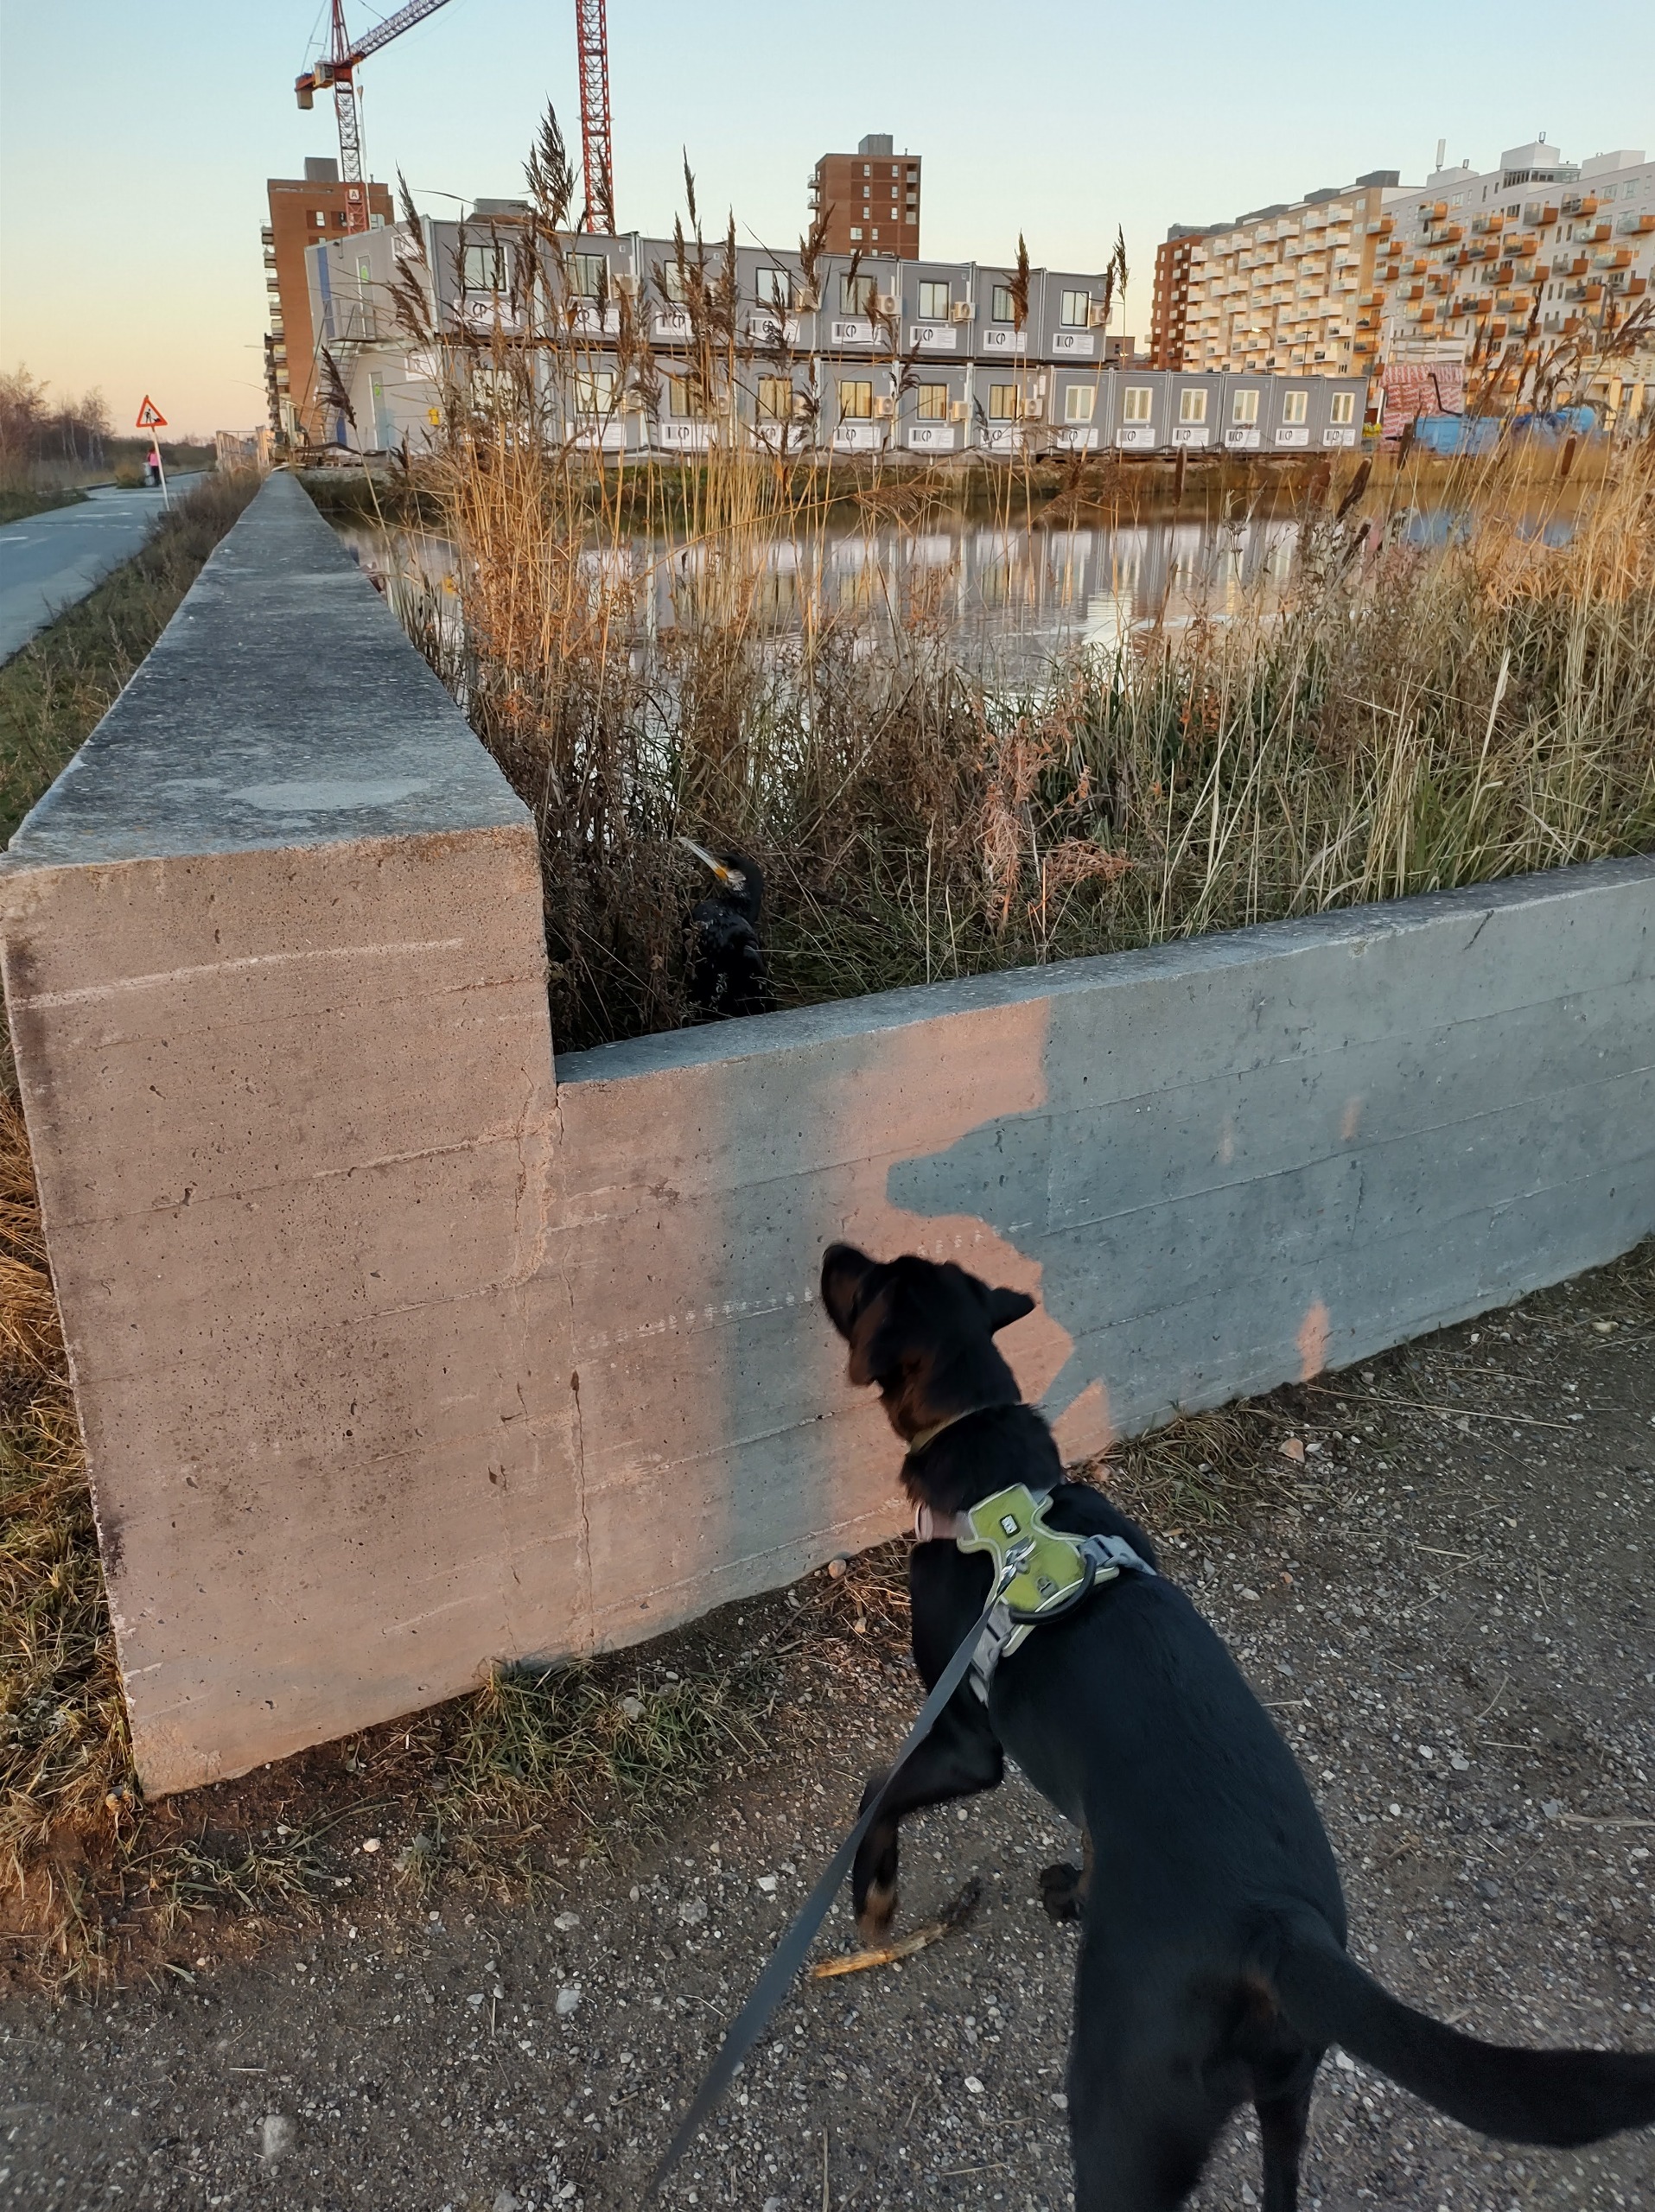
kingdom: Animalia
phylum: Chordata
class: Aves
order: Suliformes
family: Phalacrocoracidae
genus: Phalacrocorax
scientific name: Phalacrocorax carbo
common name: Skarv
